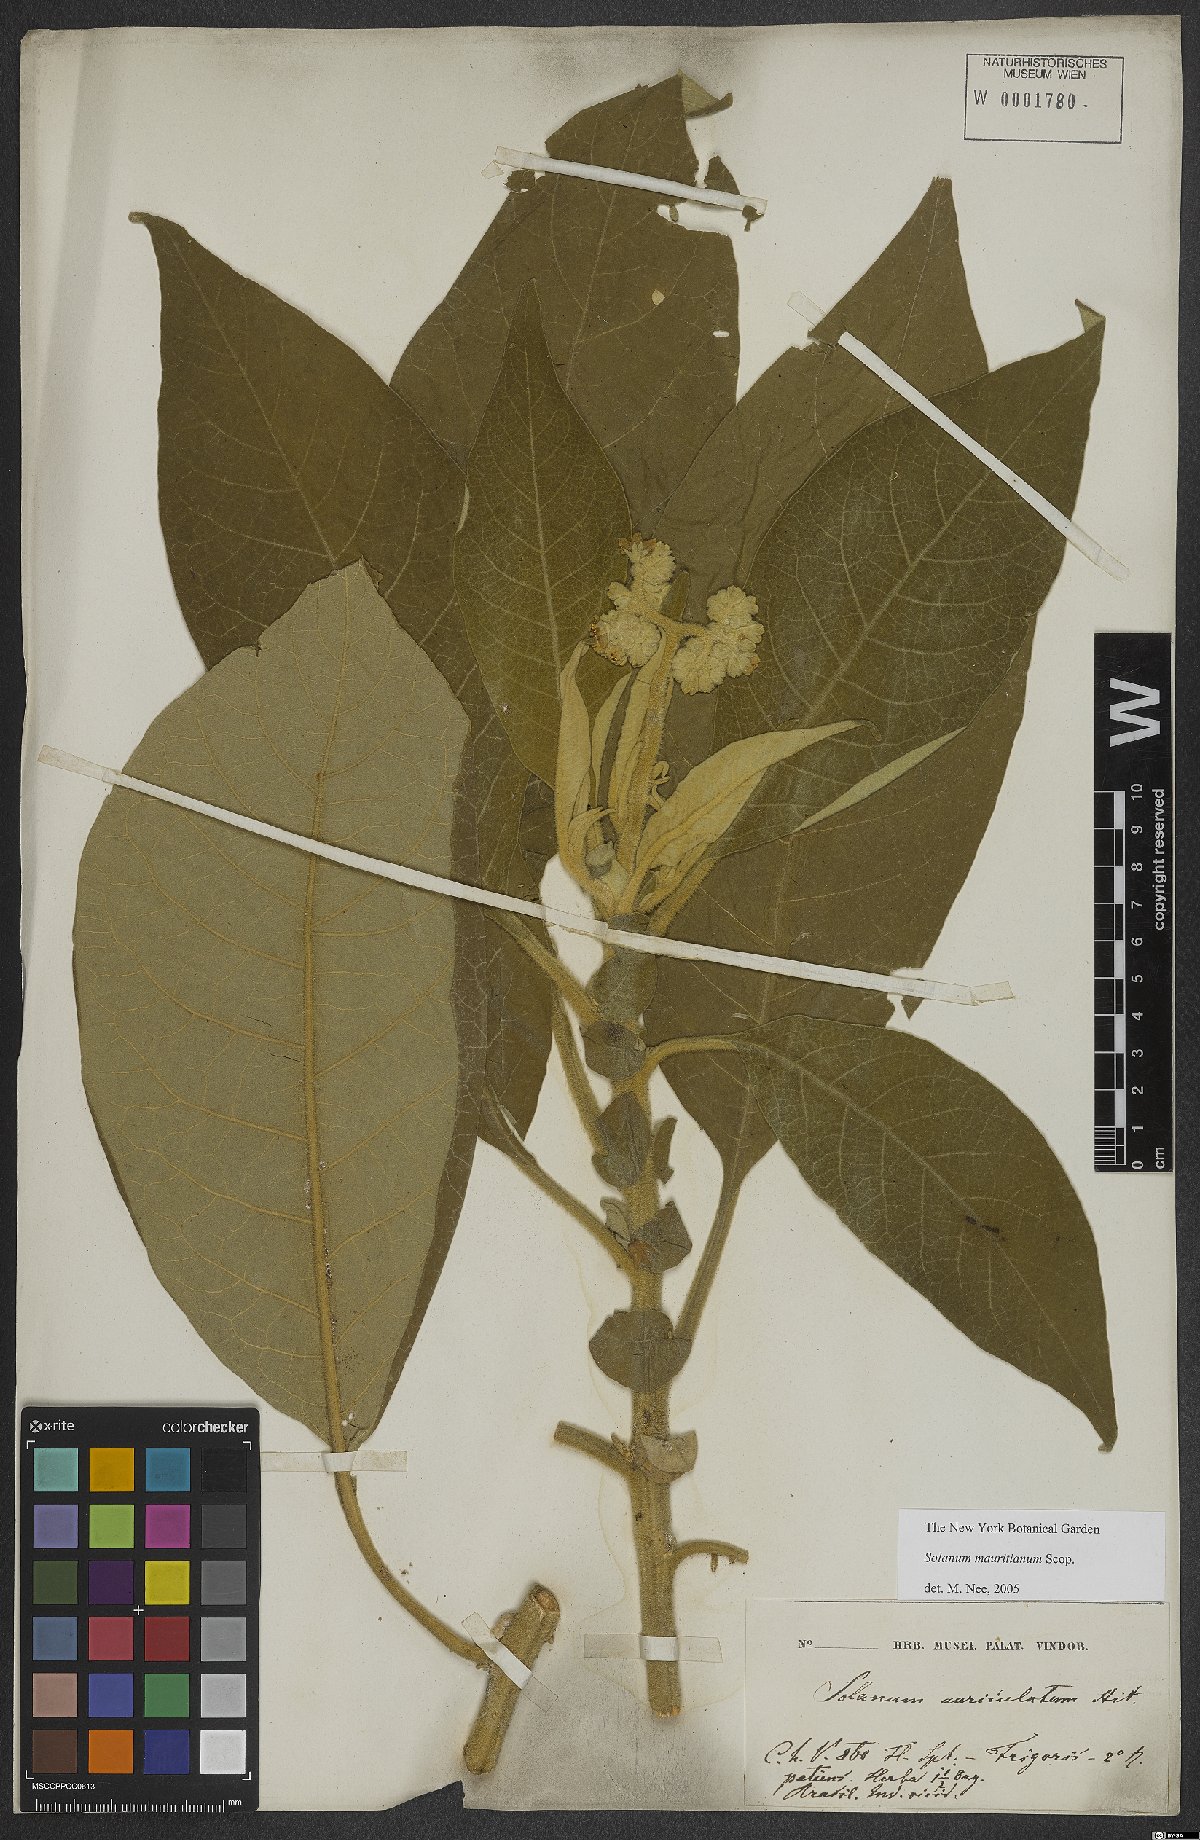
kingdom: Plantae
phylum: Tracheophyta
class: Magnoliopsida
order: Solanales
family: Solanaceae
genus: Solanum
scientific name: Solanum mauritianum
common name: Earleaf nightshade
